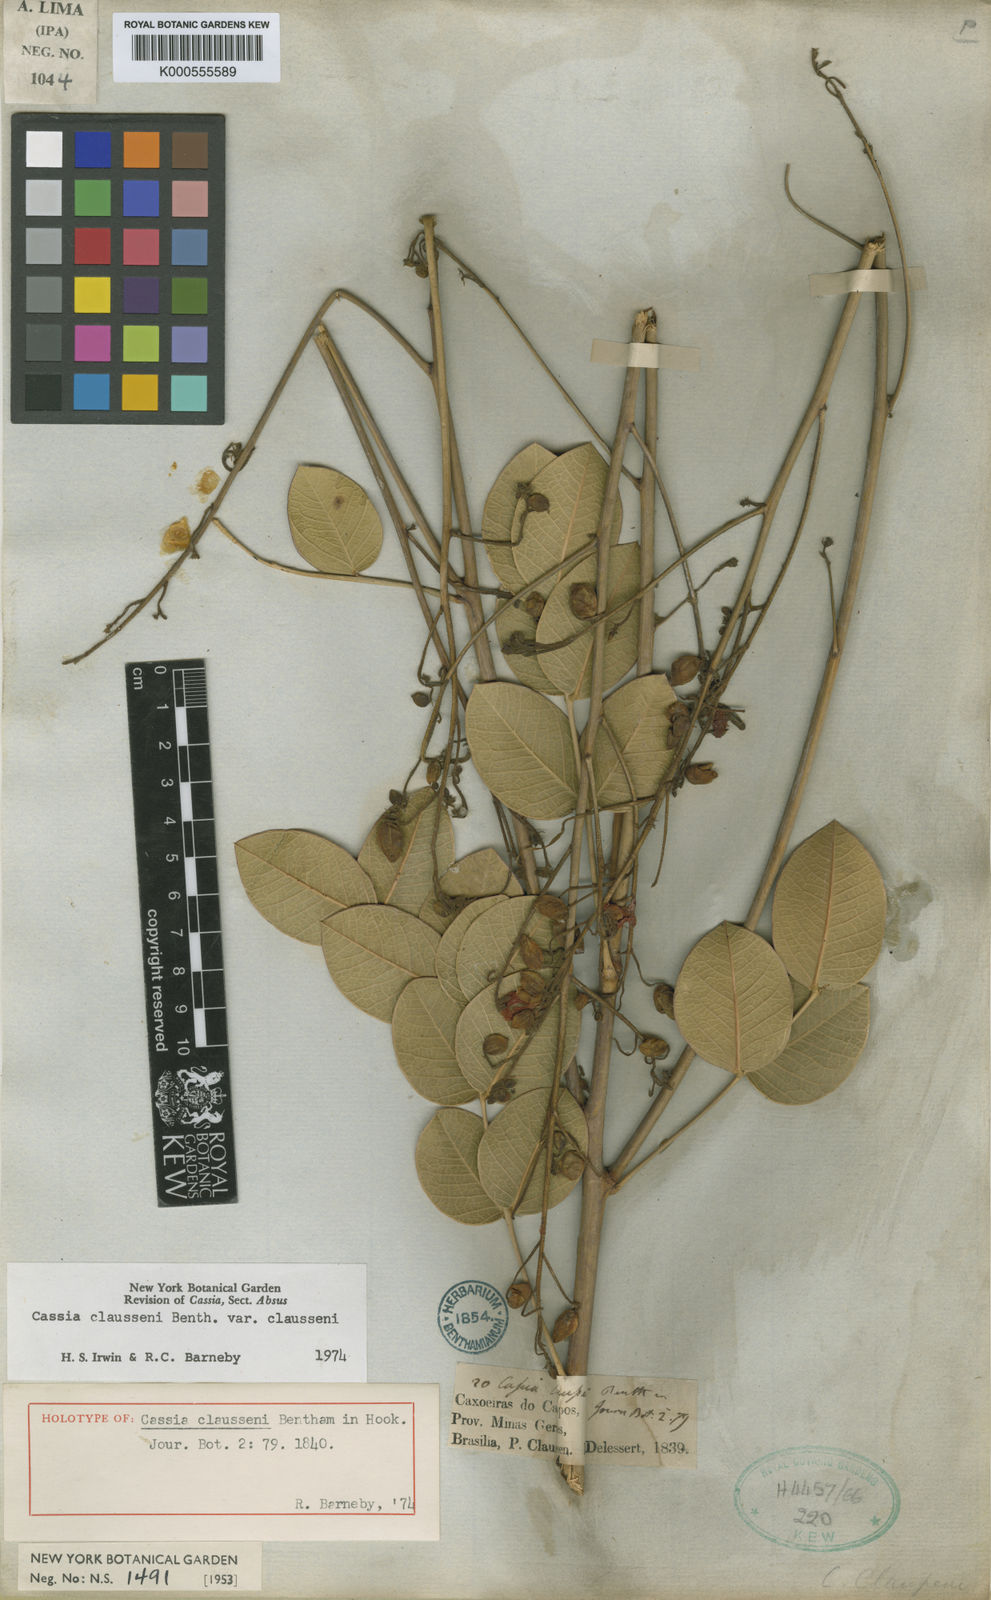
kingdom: Plantae
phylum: Tracheophyta
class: Magnoliopsida
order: Fabales
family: Fabaceae
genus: Chamaecrista
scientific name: Chamaecrista claussenii
